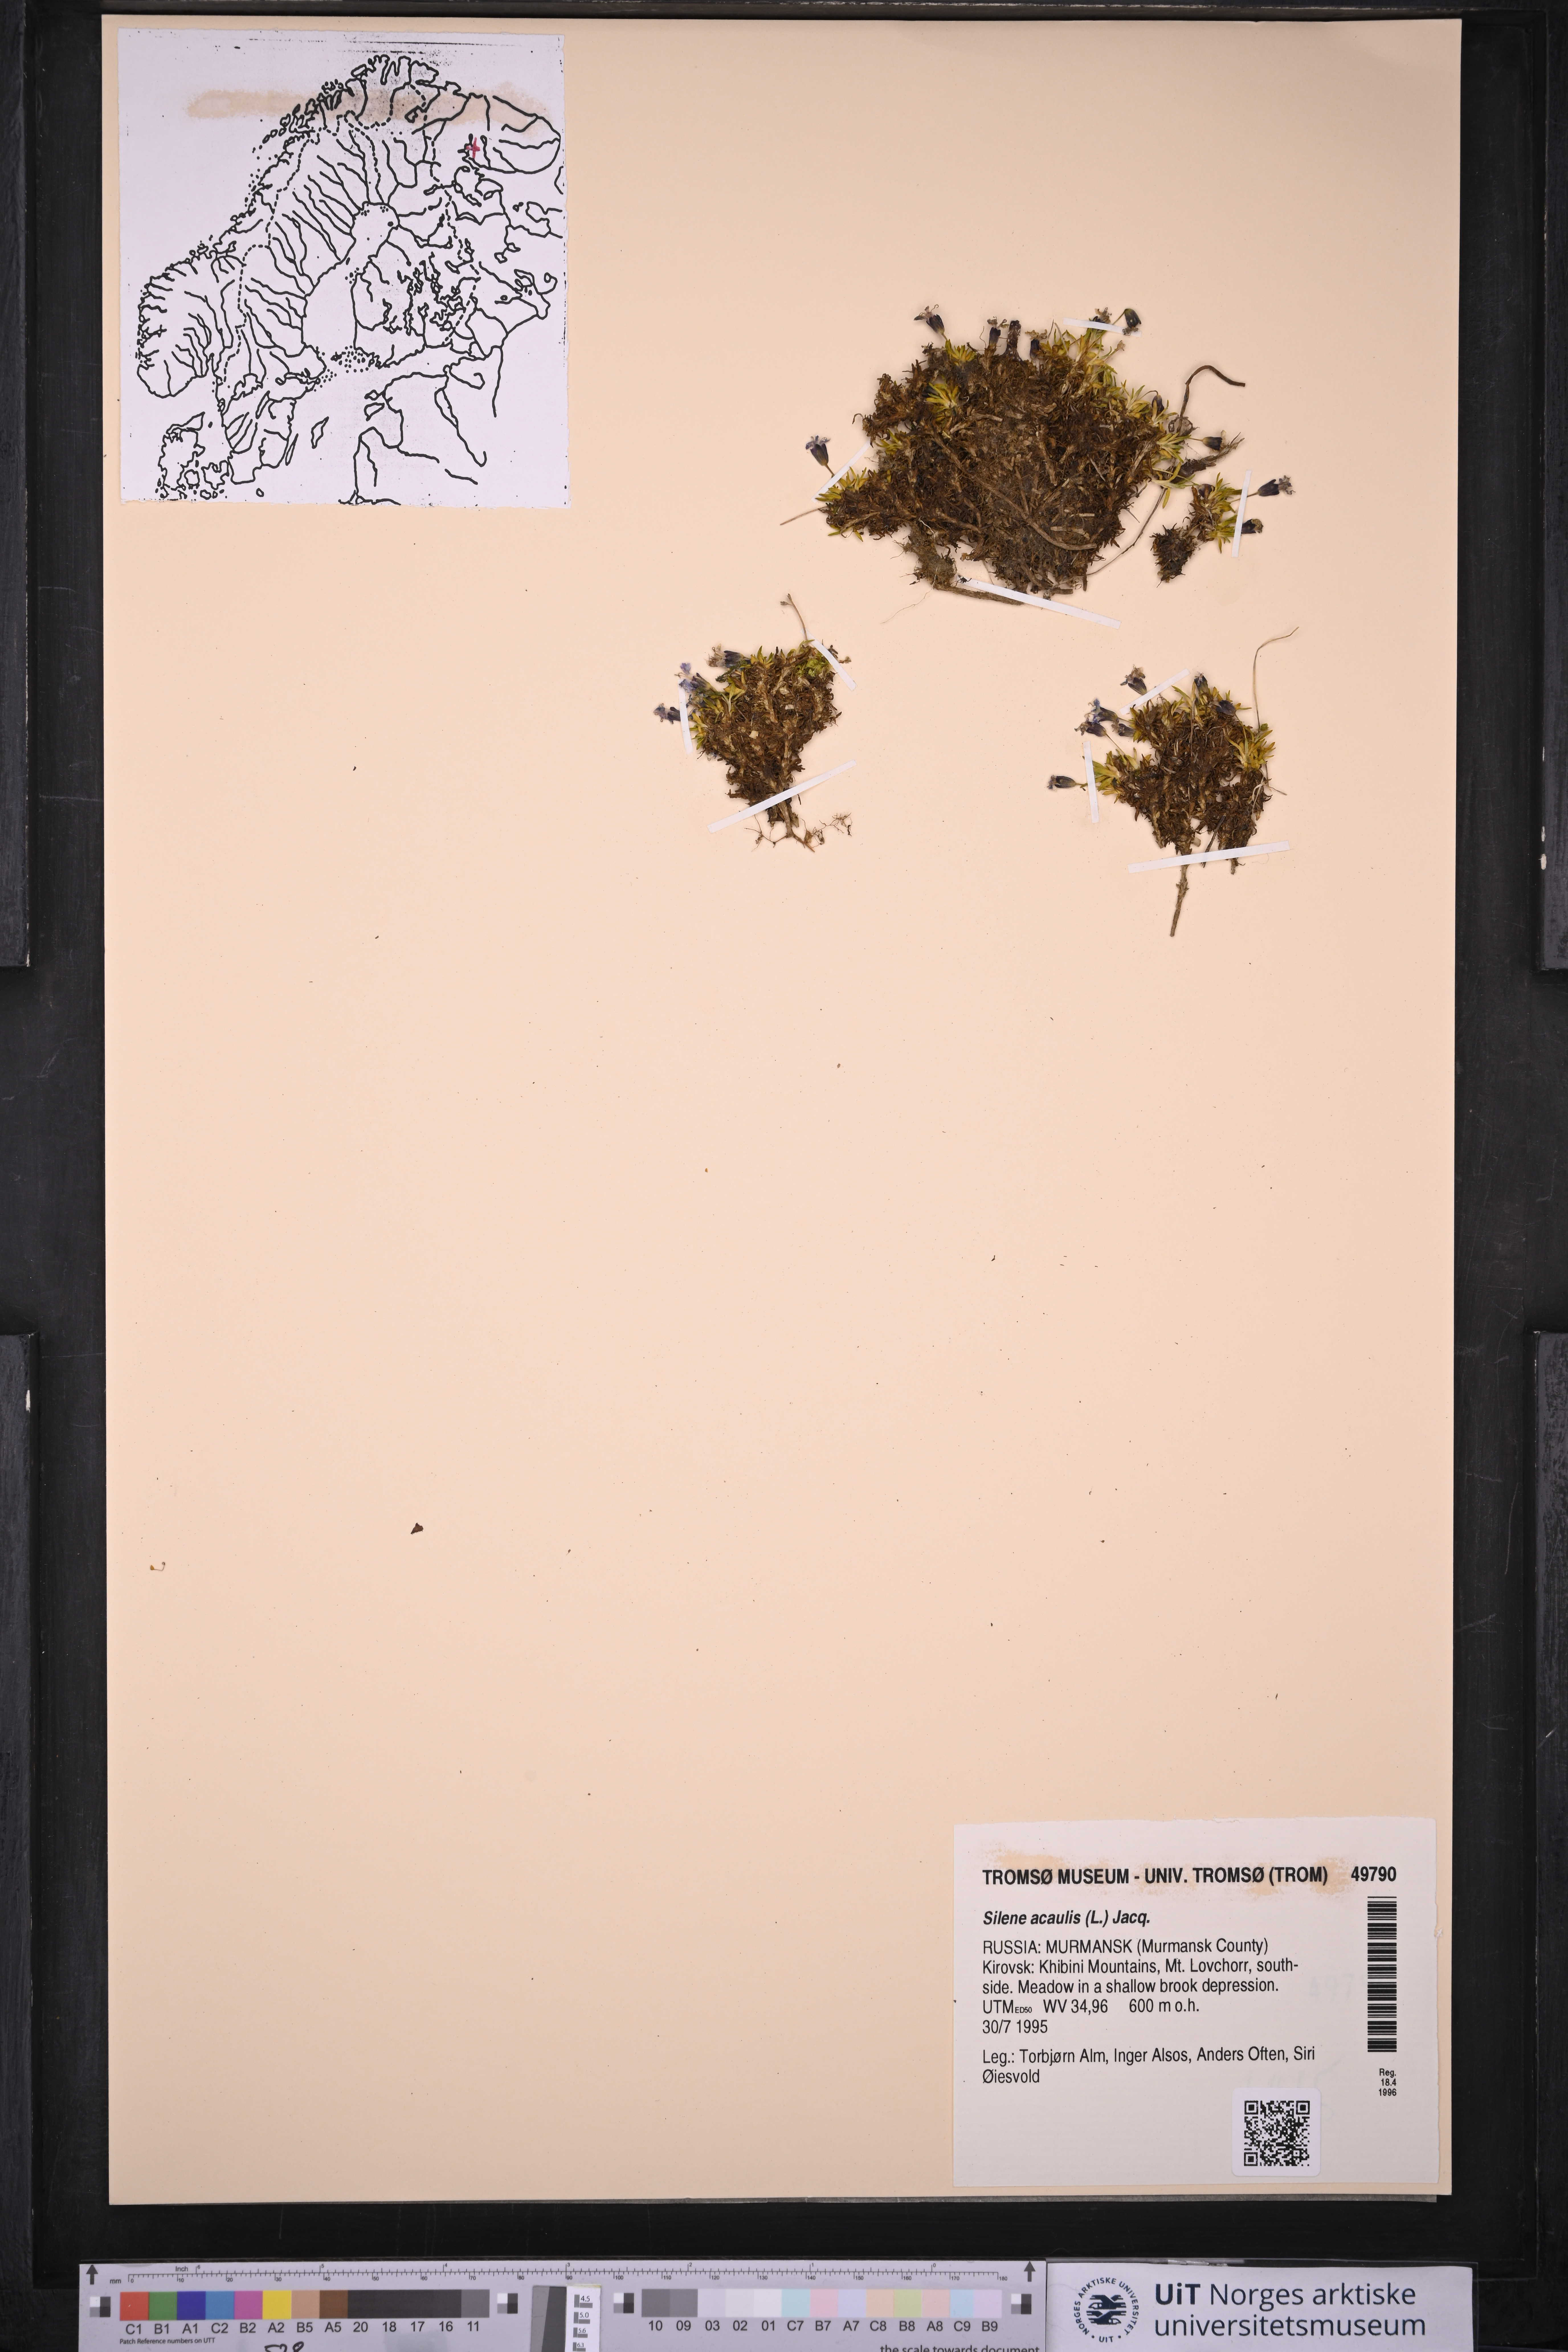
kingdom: Plantae
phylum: Tracheophyta
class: Magnoliopsida
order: Caryophyllales
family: Caryophyllaceae
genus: Silene
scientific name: Silene acaulis
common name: Moss campion
